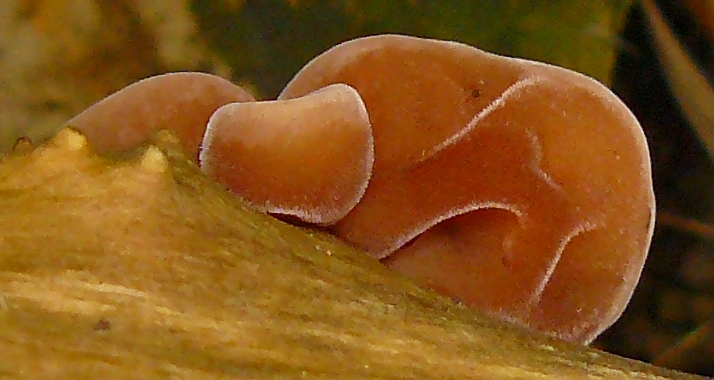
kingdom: Fungi
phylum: Basidiomycota
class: Agaricomycetes
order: Auriculariales
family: Auriculariaceae
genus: Auricularia
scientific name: Auricularia auricula-judae
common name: almindelig judasøre
